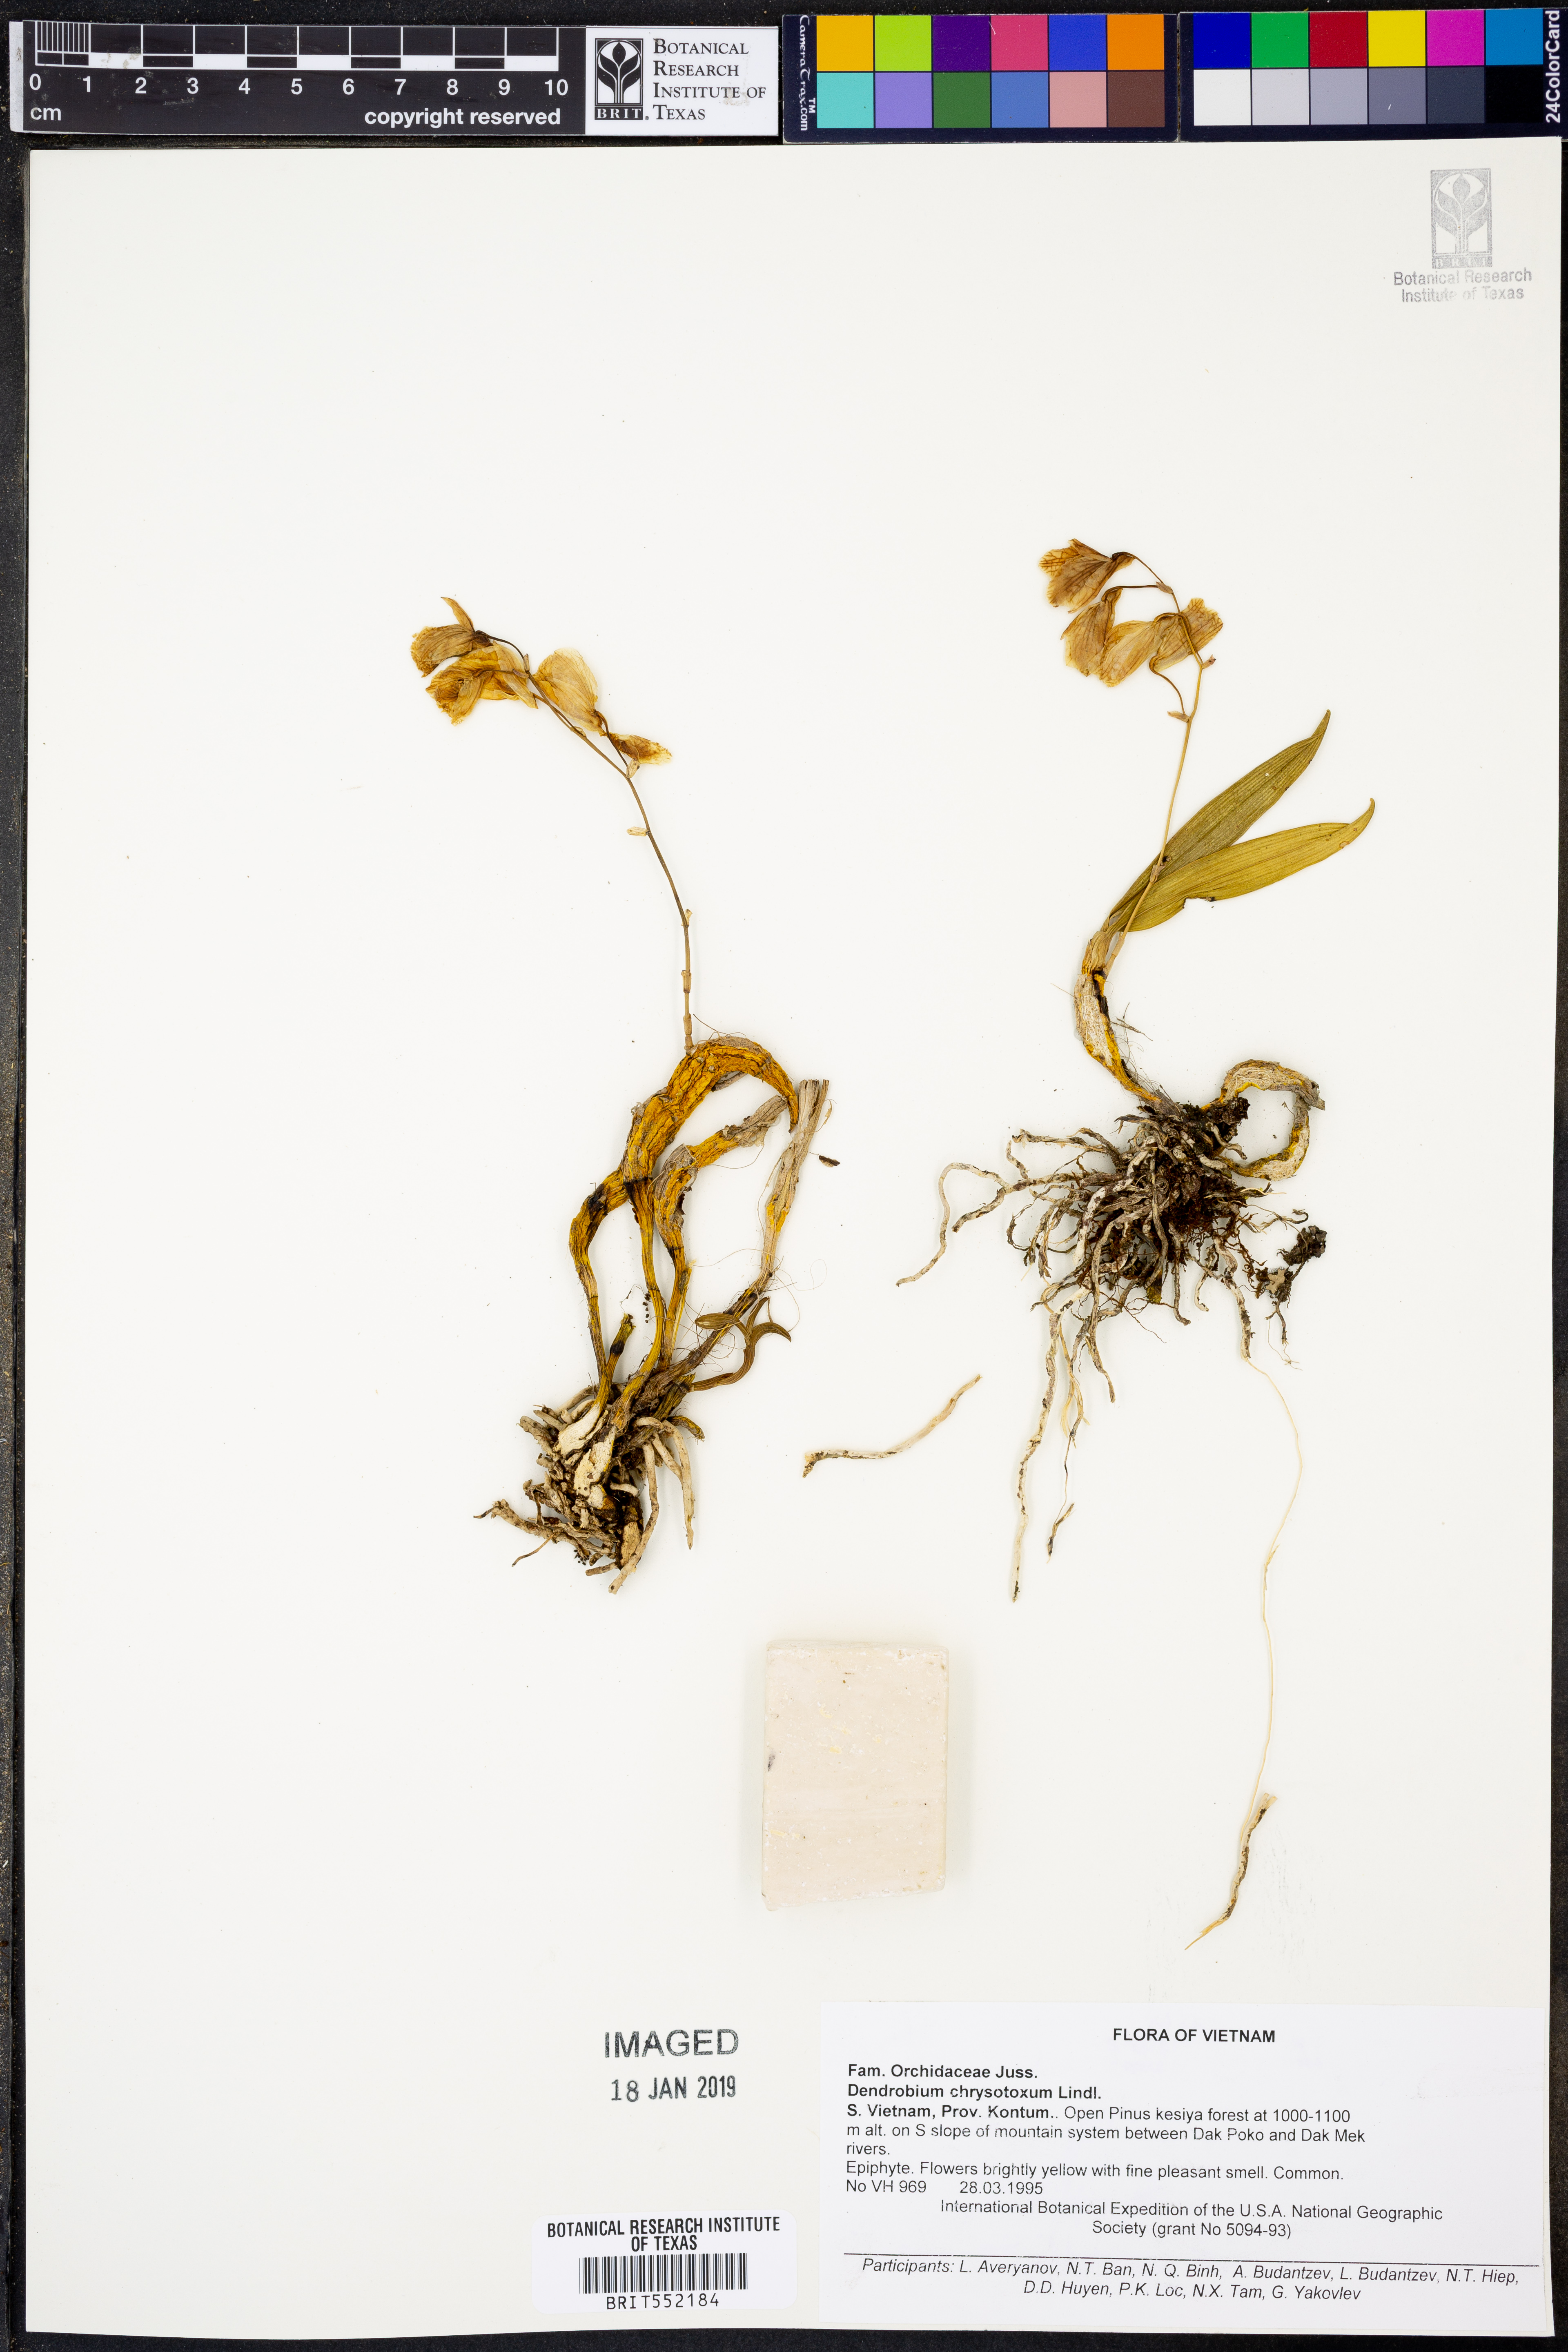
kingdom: Plantae
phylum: Tracheophyta
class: Liliopsida
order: Asparagales
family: Orchidaceae
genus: Dendrobium
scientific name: Dendrobium chrysotoxum
